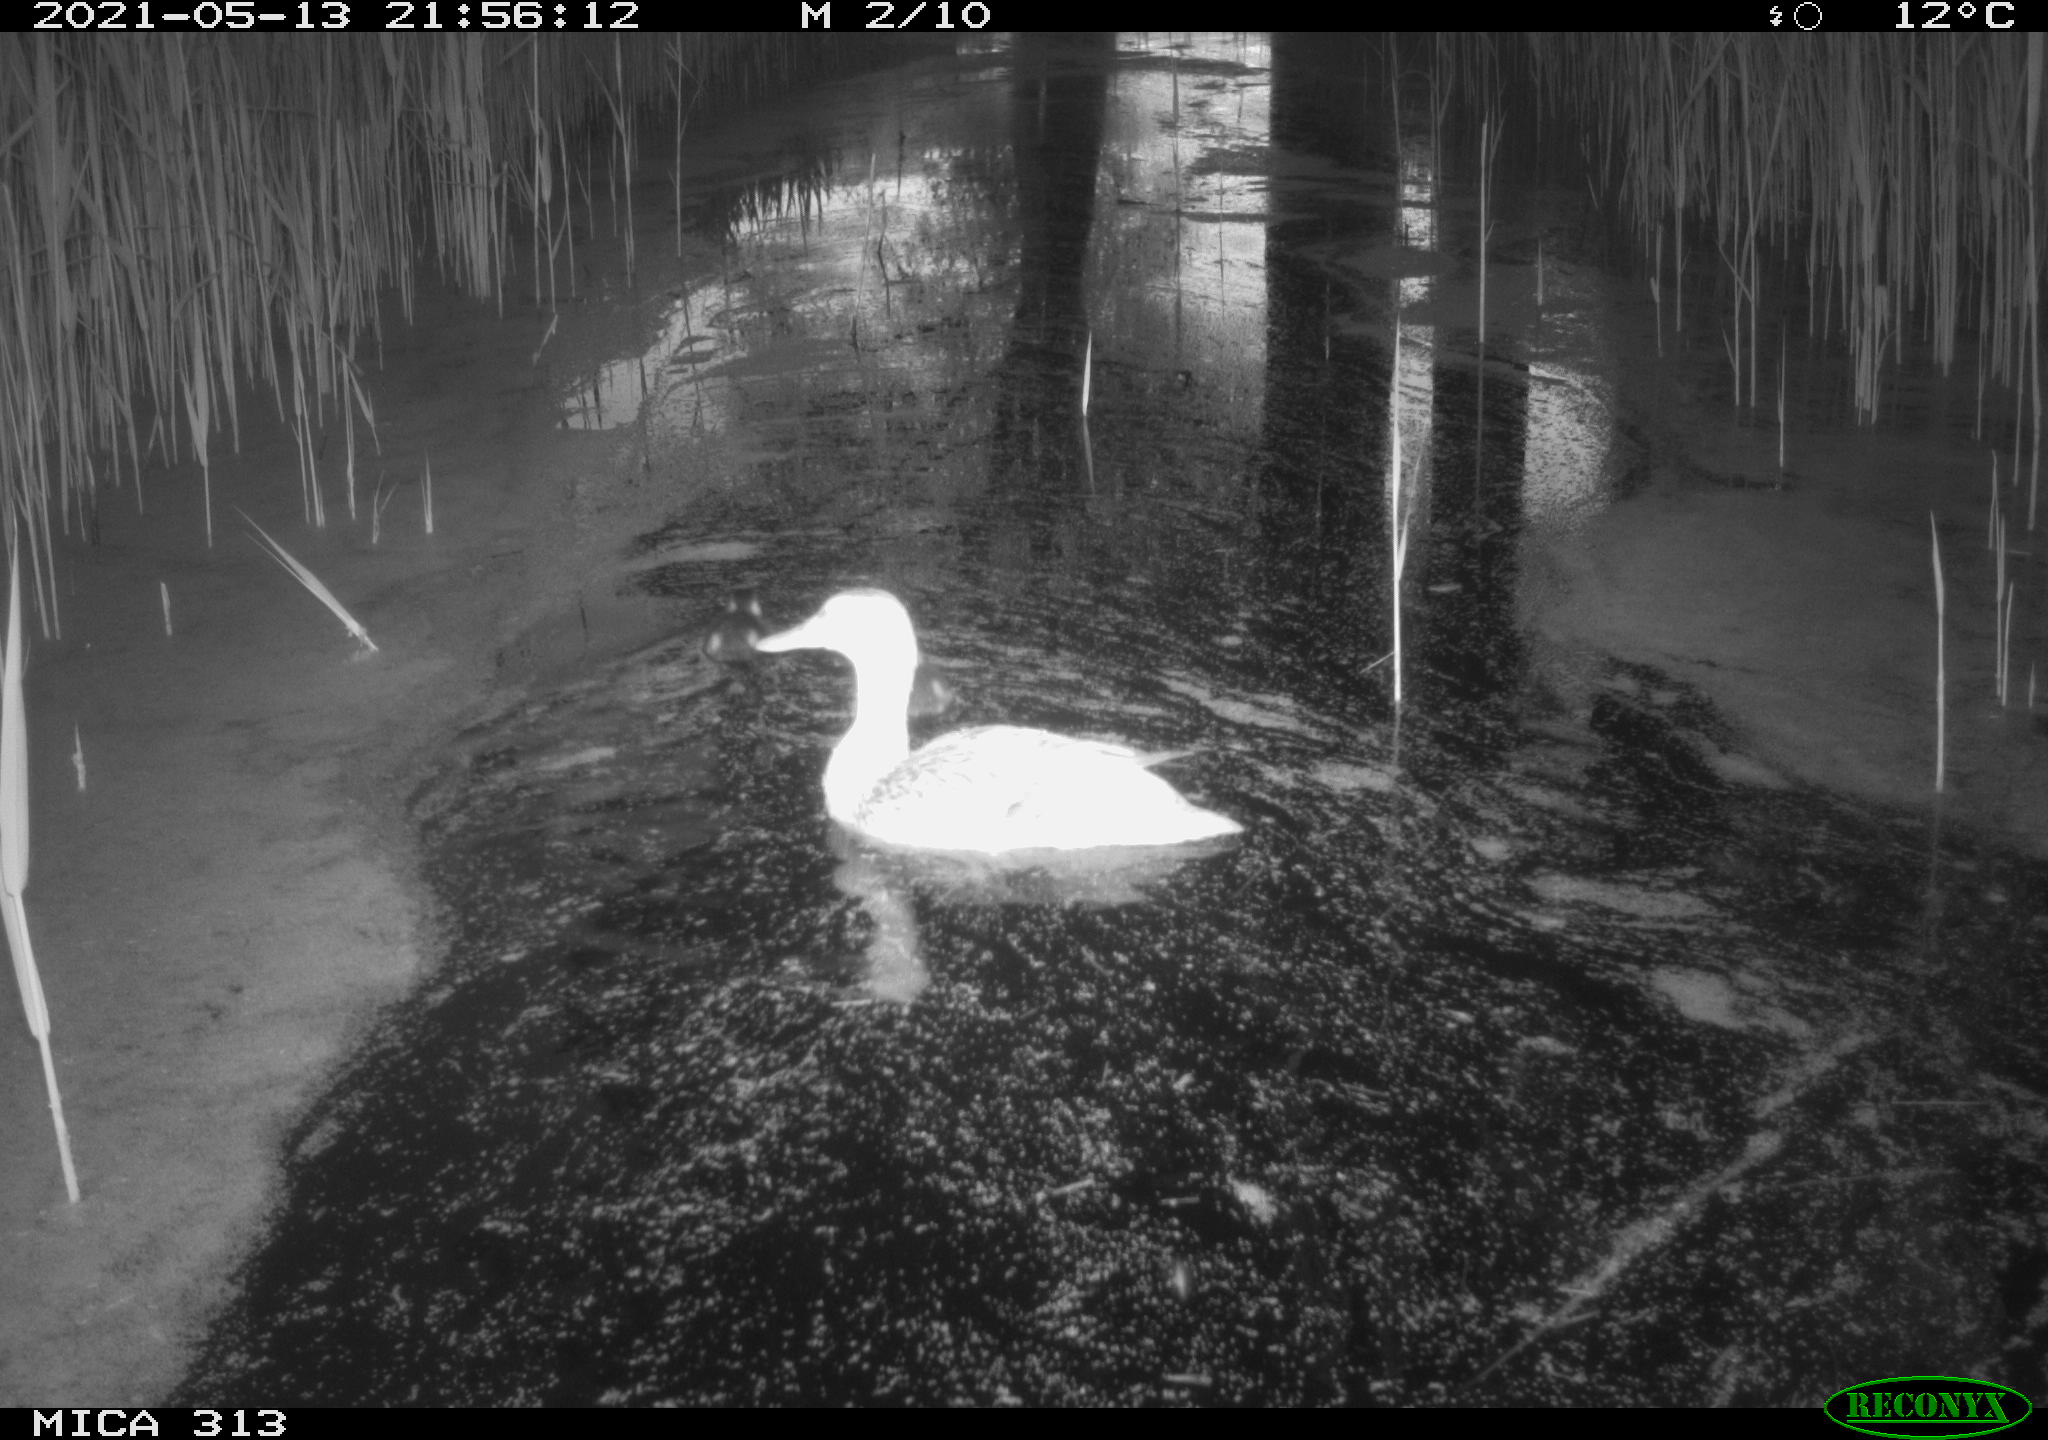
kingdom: Animalia
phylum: Chordata
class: Aves
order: Anseriformes
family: Anatidae
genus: Anas
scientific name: Anas platyrhynchos
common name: Mallard
